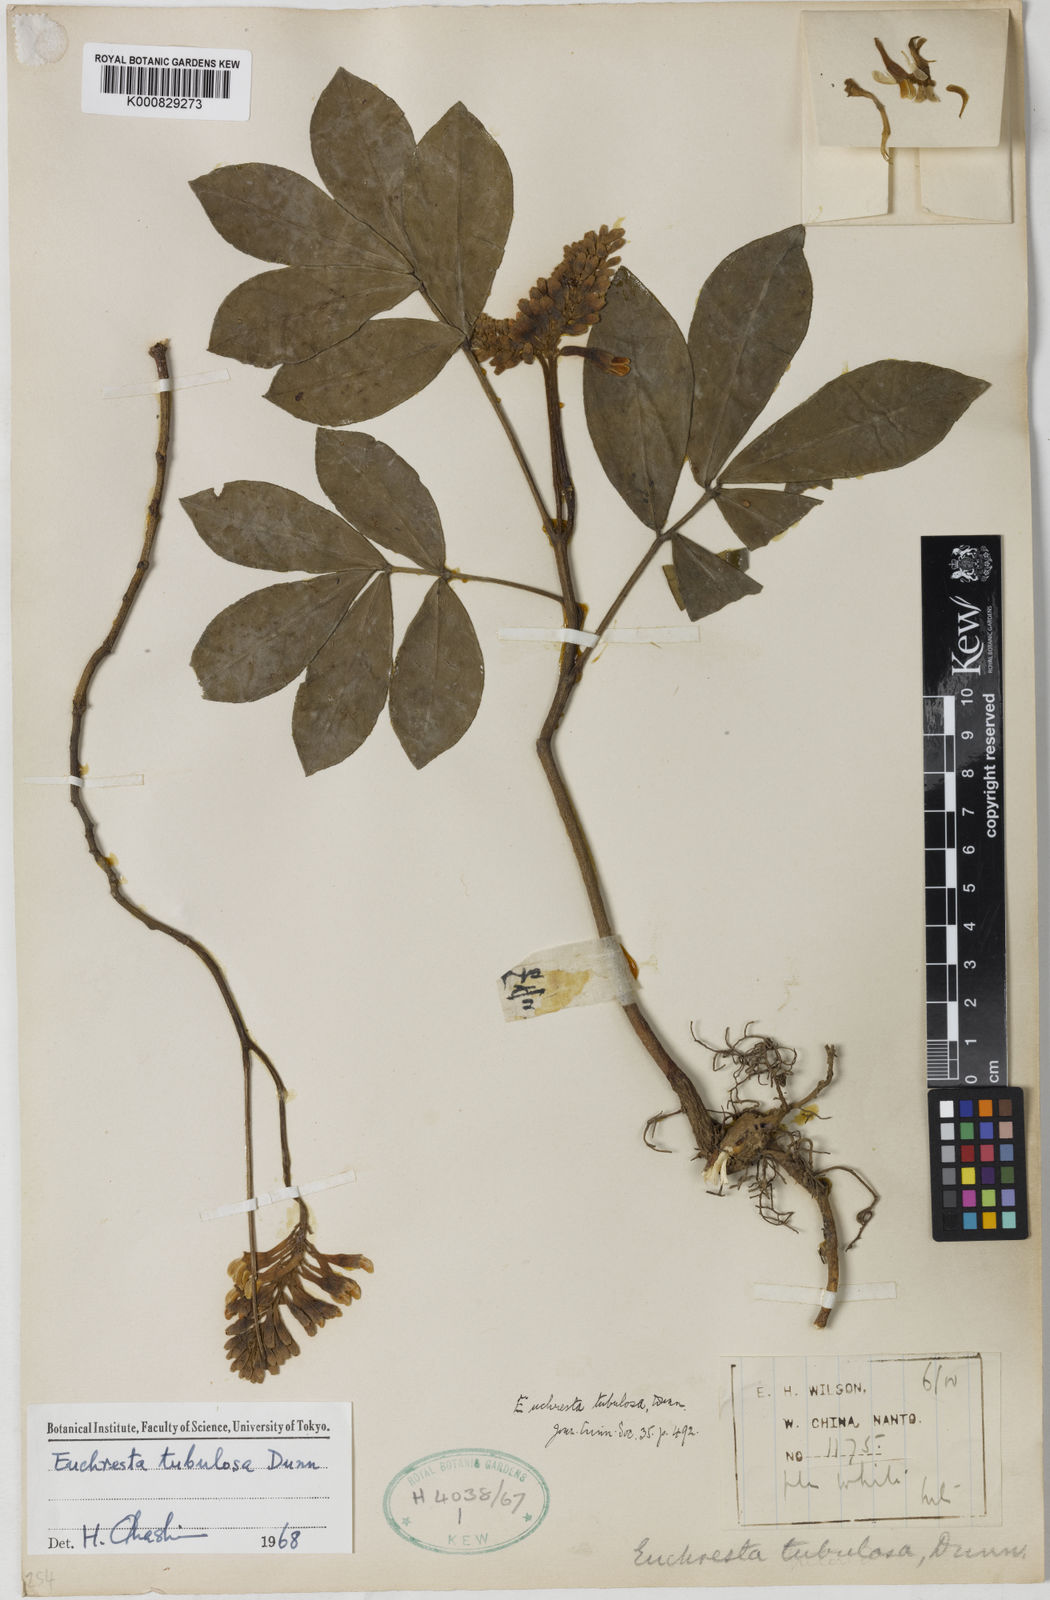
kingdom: Plantae
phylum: Tracheophyta
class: Magnoliopsida
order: Fabales
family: Fabaceae
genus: Euchresta
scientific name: Euchresta tubulosa
